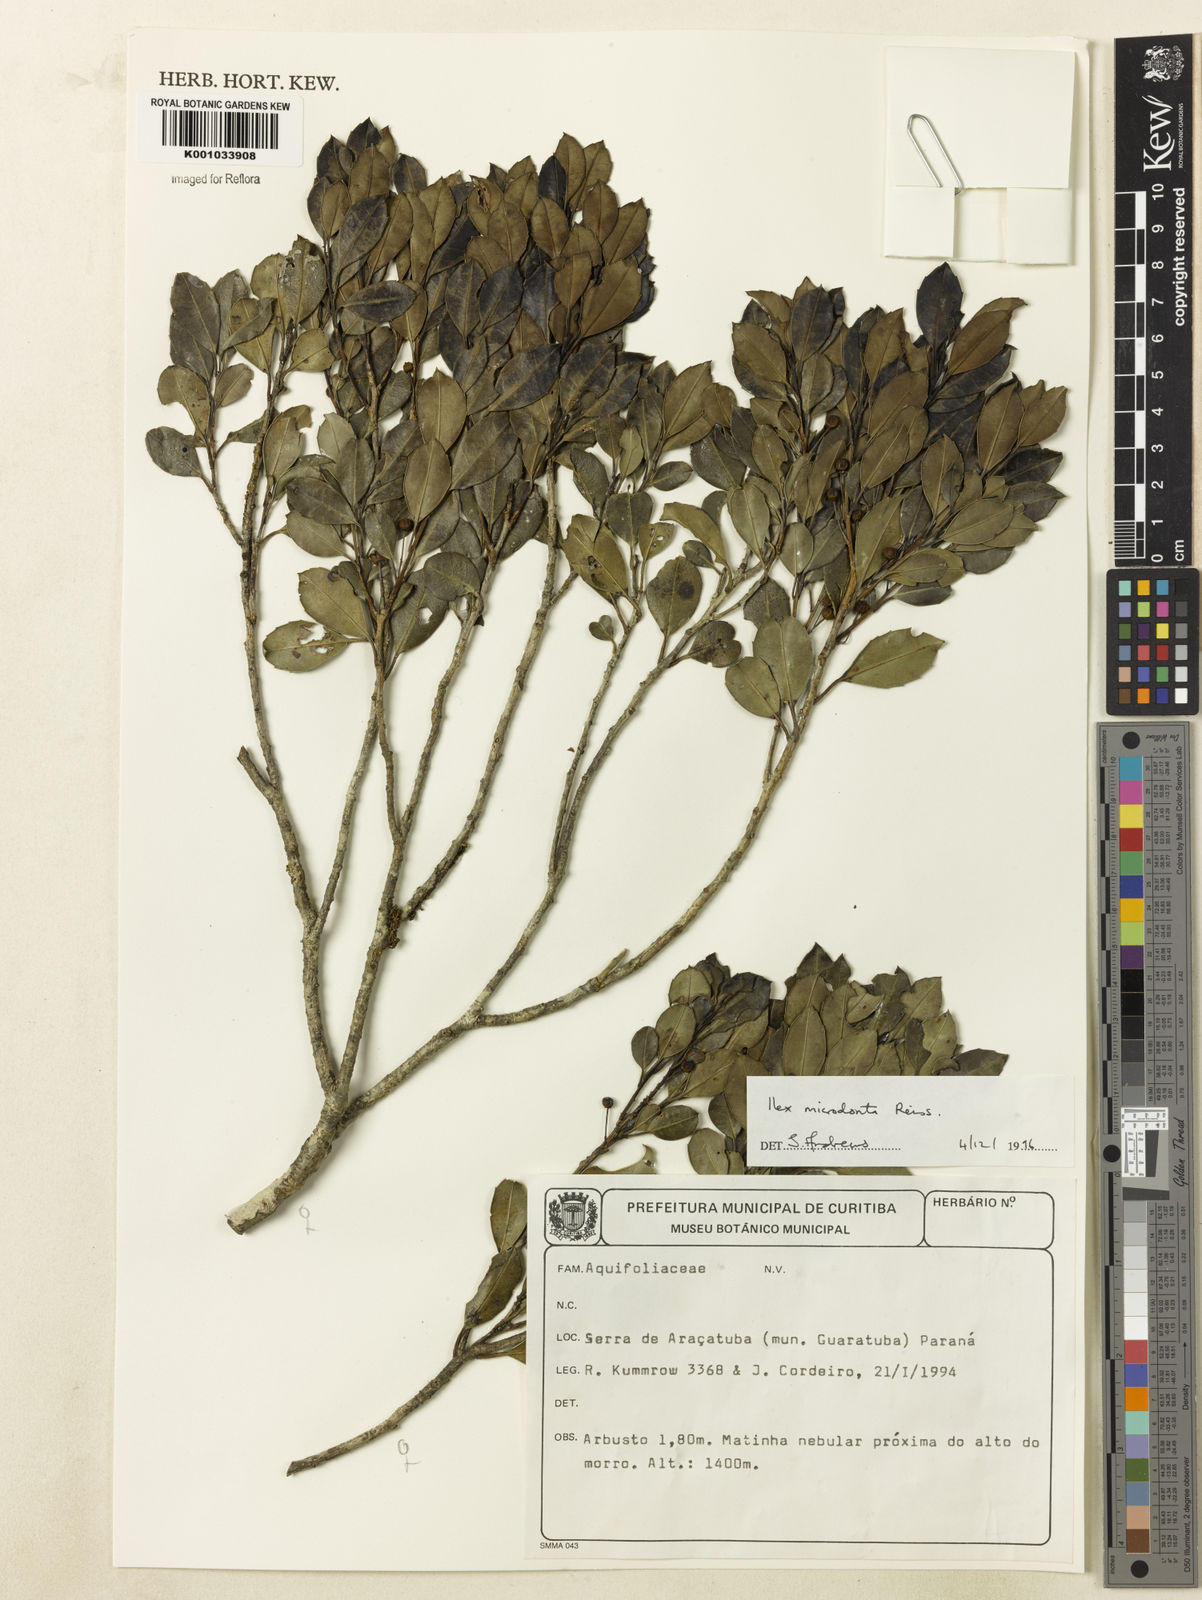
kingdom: Plantae
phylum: Tracheophyta
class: Magnoliopsida
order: Aquifoliales
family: Aquifoliaceae
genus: Ilex
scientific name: Ilex microdonta
